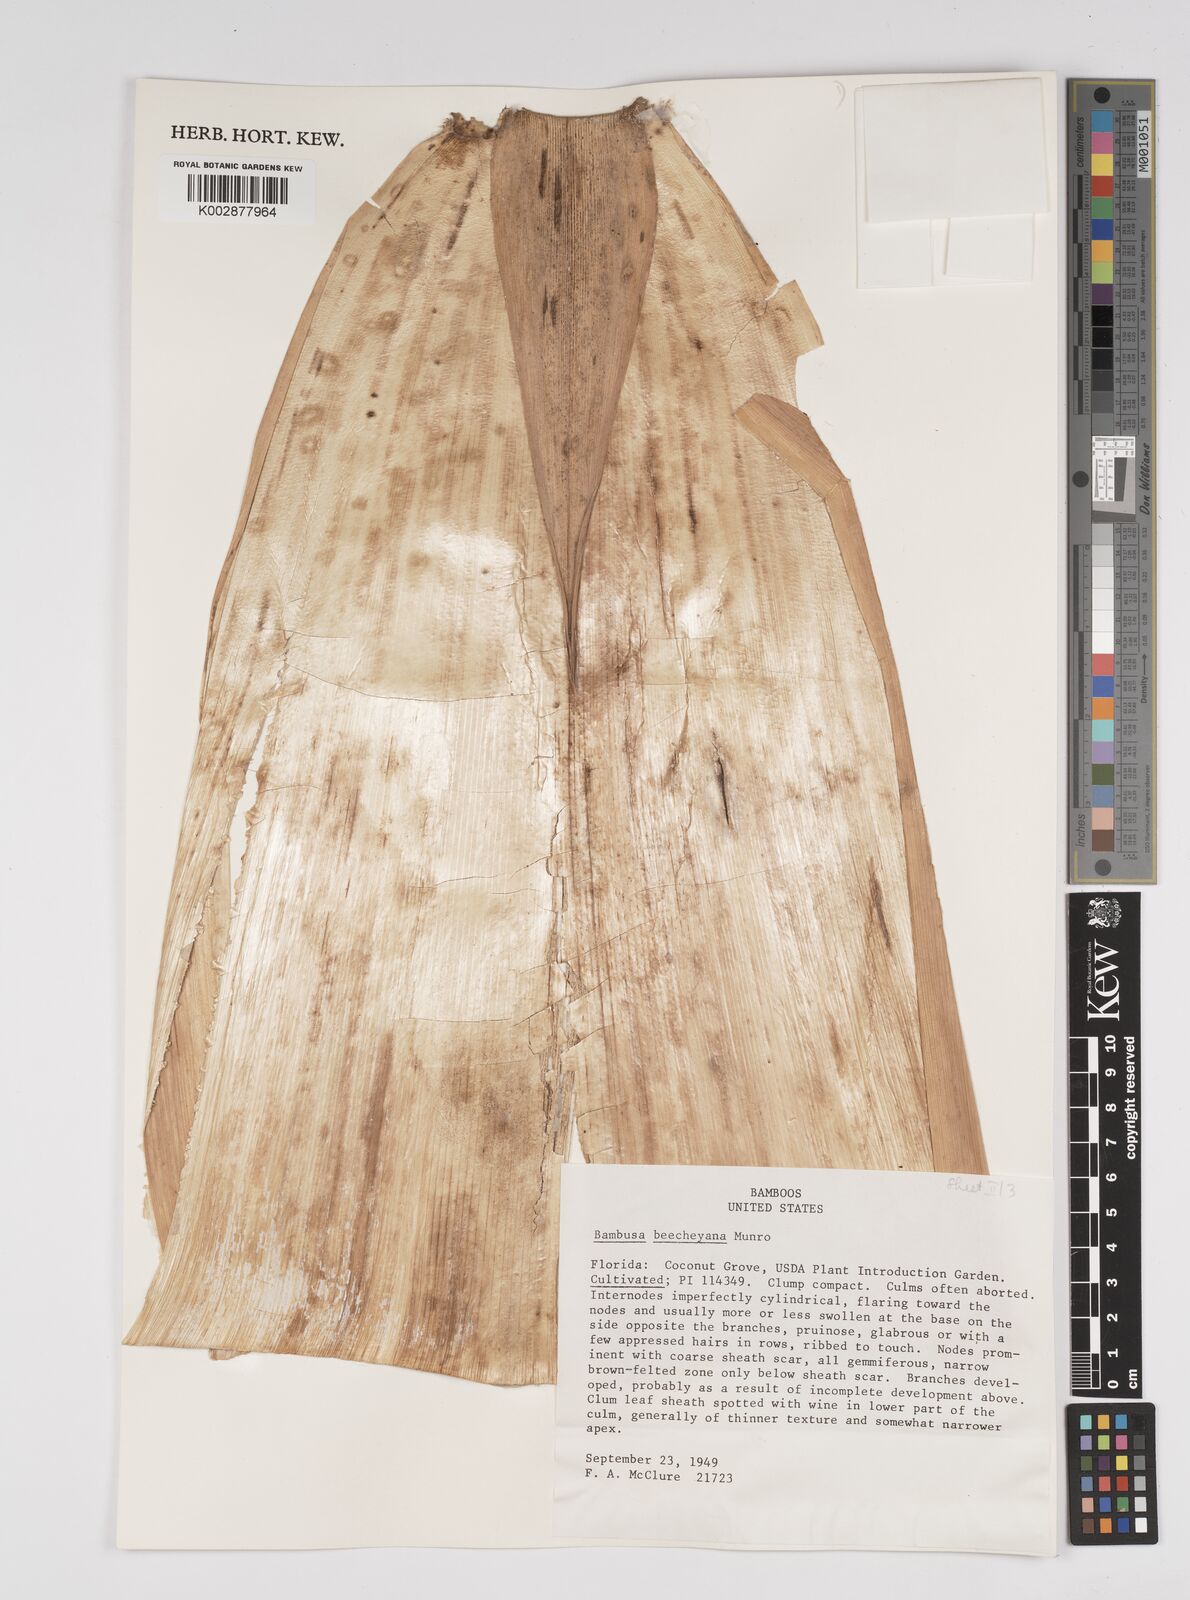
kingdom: Plantae
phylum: Tracheophyta
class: Liliopsida
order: Poales
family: Poaceae
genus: Bambusa
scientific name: Bambusa beecheyana
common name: Beechey's bamboo
